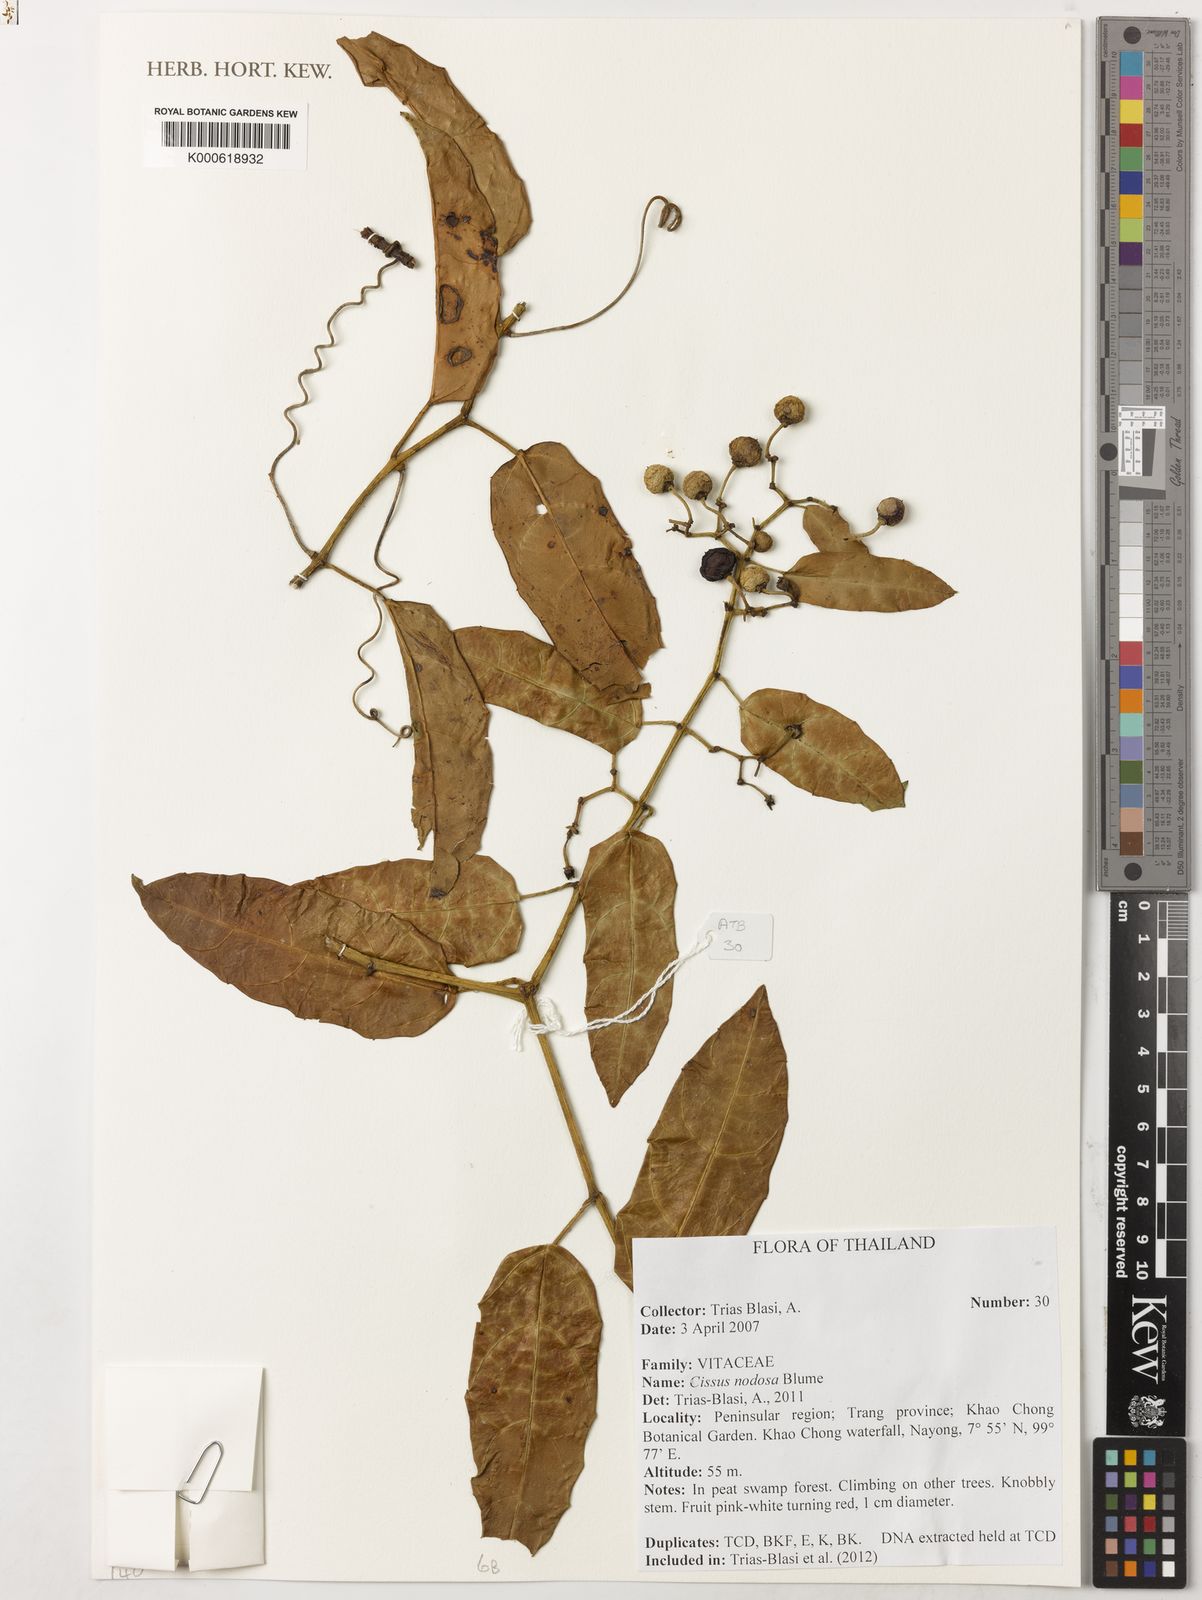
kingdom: Plantae
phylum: Tracheophyta
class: Magnoliopsida
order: Vitales
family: Vitaceae
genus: Cissus
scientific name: Cissus nodosa
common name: Grape ivy
